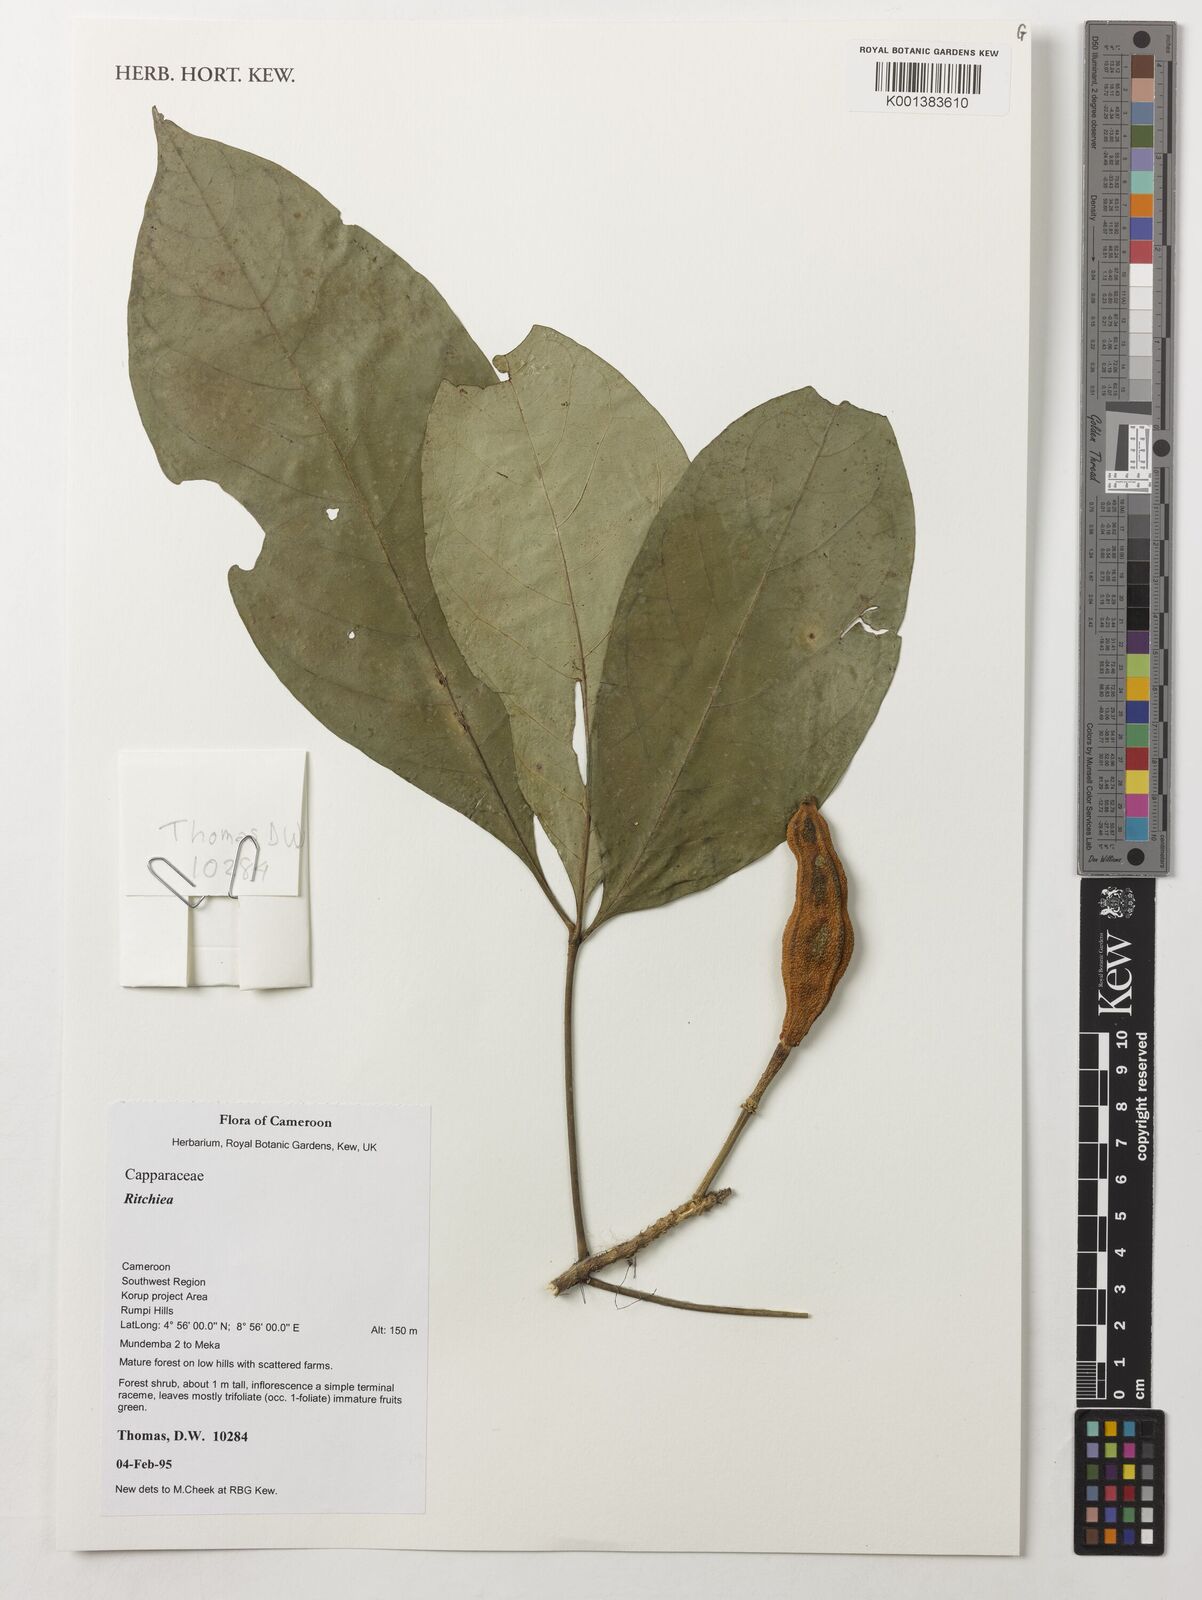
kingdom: Plantae
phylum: Tracheophyta
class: Magnoliopsida
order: Brassicales
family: Capparaceae
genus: Ritchiea
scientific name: Ritchiea
